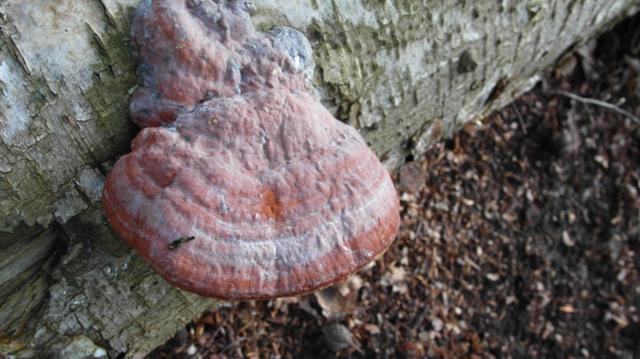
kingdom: Fungi
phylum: Basidiomycota
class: Agaricomycetes
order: Polyporales
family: Fomitopsidaceae
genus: Fomitopsis
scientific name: Fomitopsis pinicola
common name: randbæltet hovporesvamp
